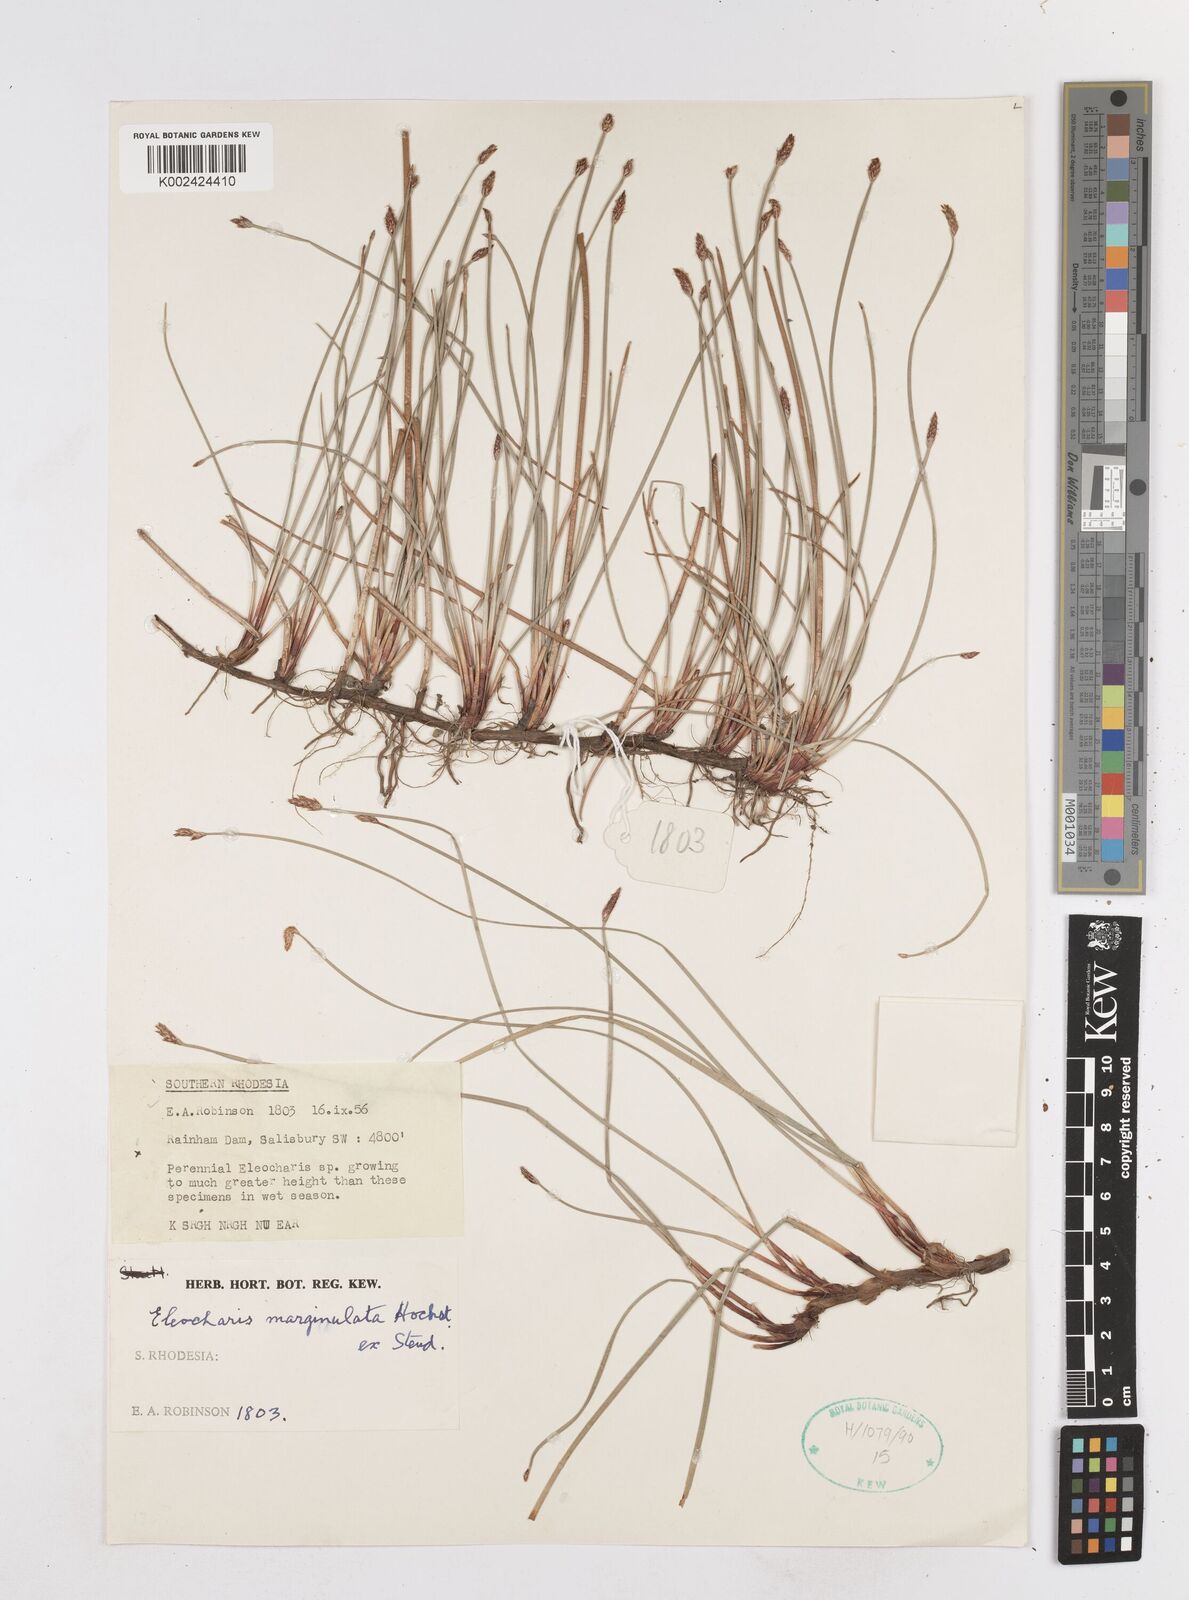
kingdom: Plantae
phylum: Tracheophyta
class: Liliopsida
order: Poales
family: Cyperaceae
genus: Eleocharis
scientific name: Eleocharis marginulata
